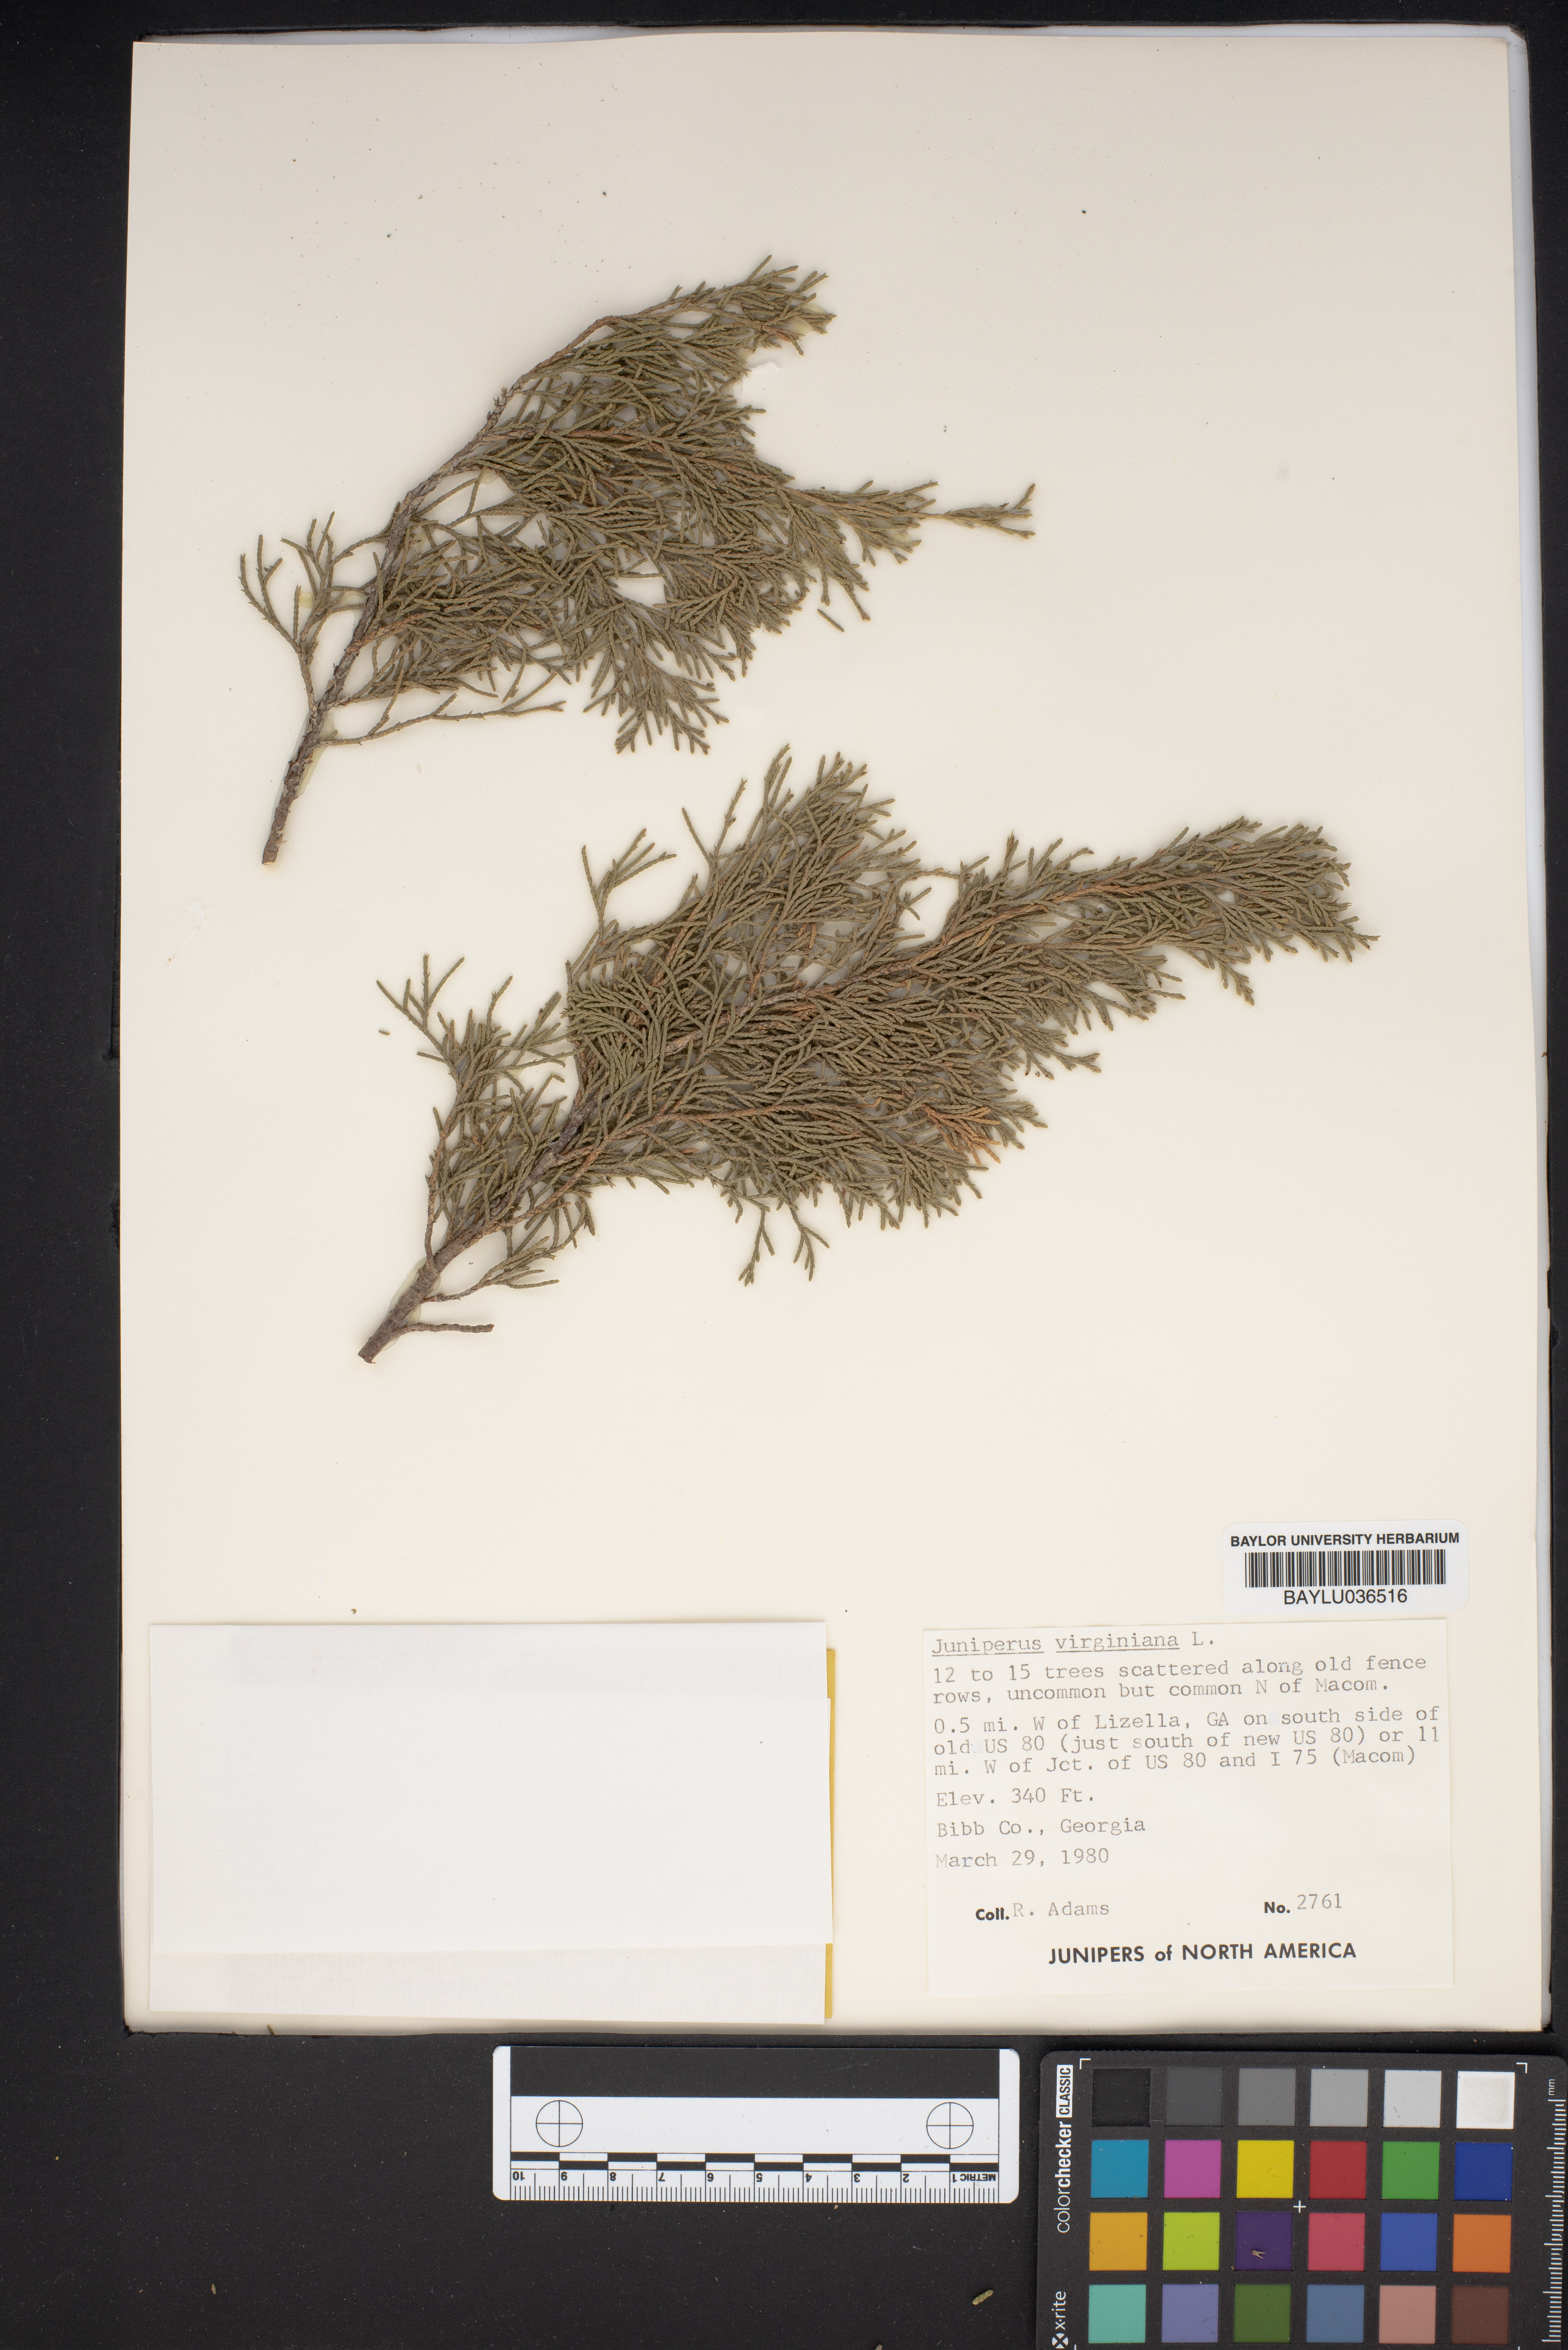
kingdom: Plantae
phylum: Tracheophyta
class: Pinopsida
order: Pinales
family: Cupressaceae
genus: Juniperus
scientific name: Juniperus virginiana
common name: Red juniper
